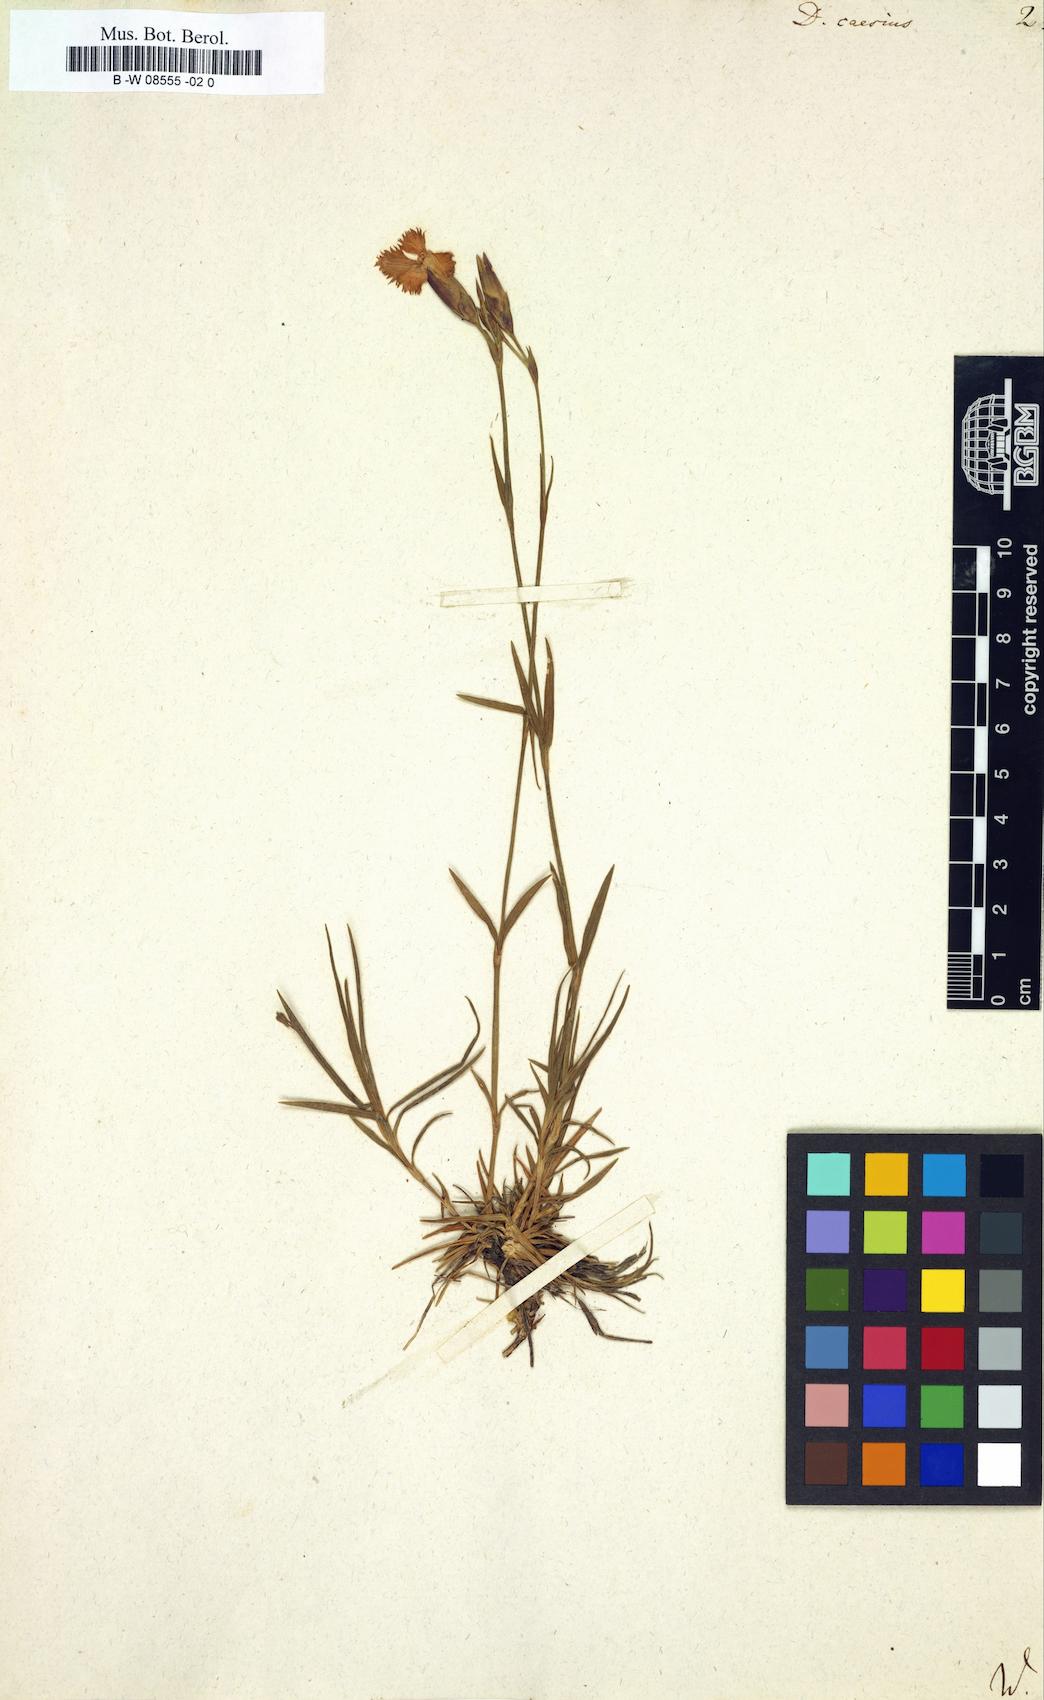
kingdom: Plantae
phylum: Tracheophyta
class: Magnoliopsida
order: Caryophyllales
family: Caryophyllaceae
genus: Dianthus
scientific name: Dianthus caesius
